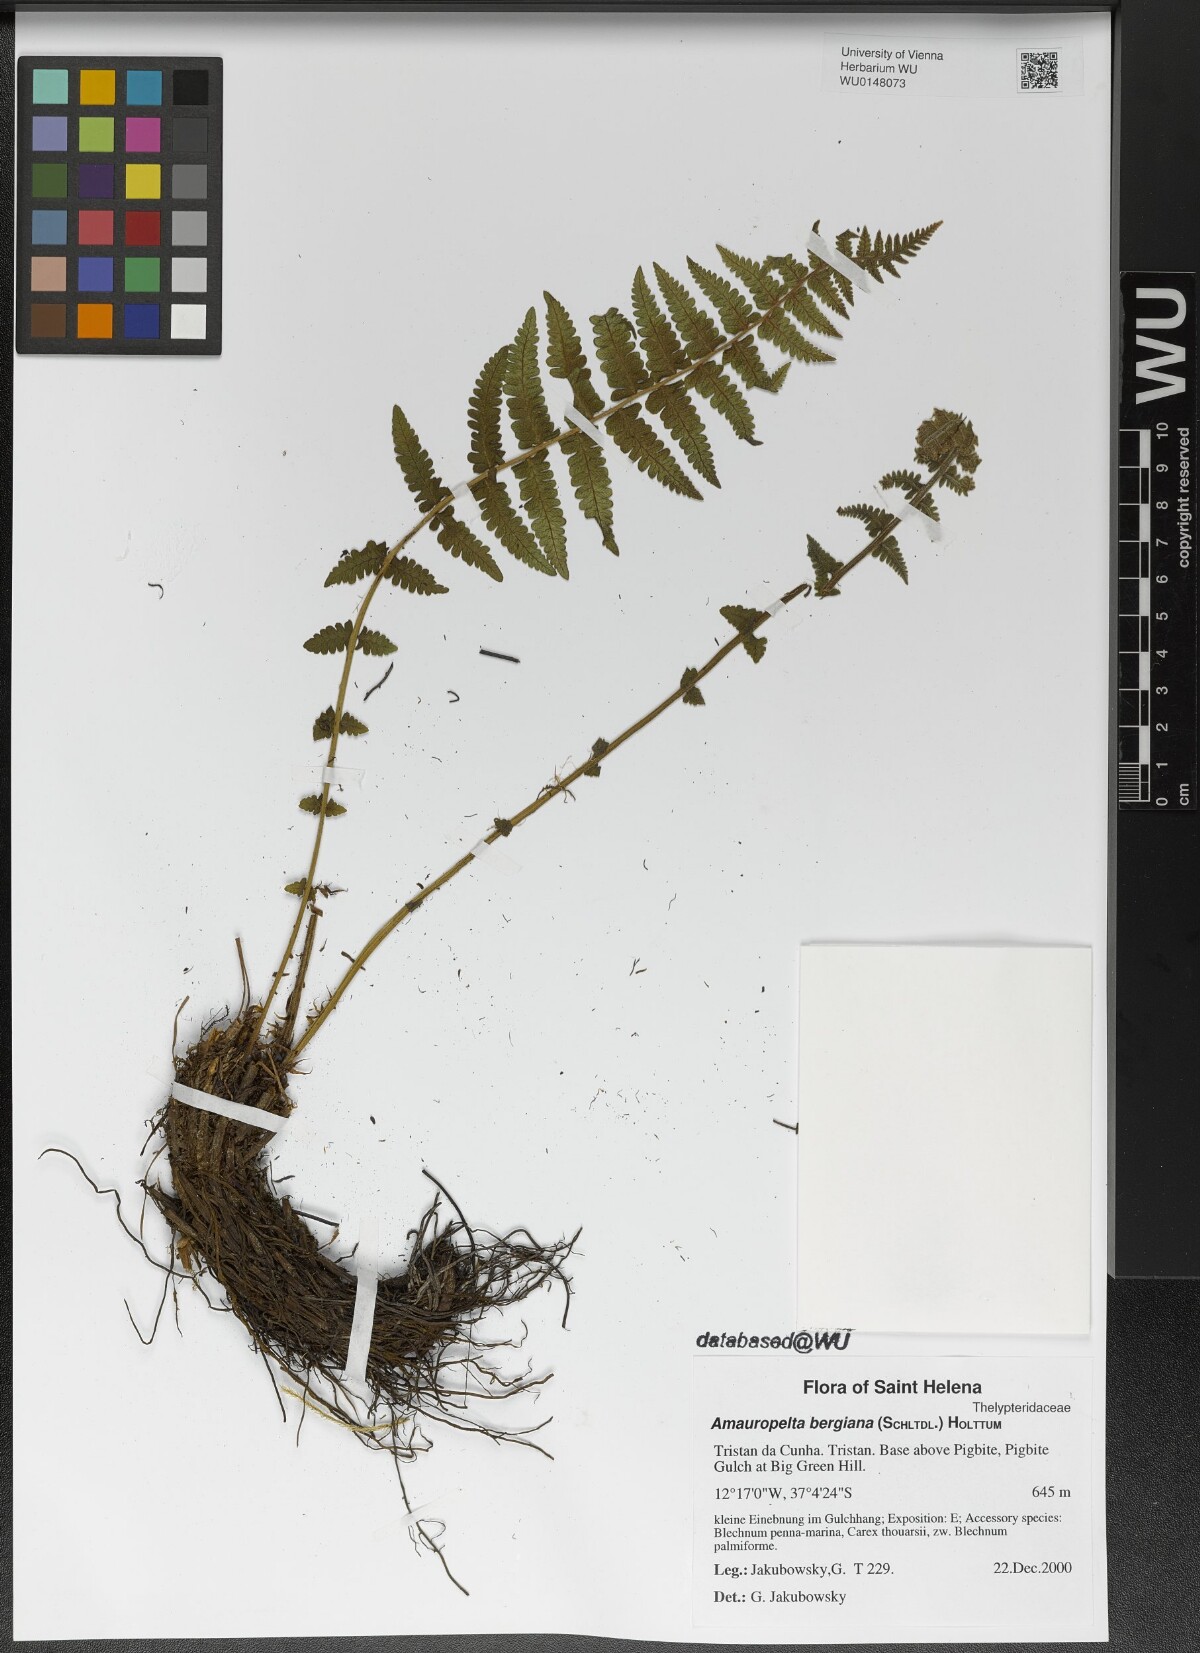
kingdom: Plantae
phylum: Tracheophyta
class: Polypodiopsida
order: Polypodiales
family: Thelypteridaceae
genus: Amauropelta
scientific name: Amauropelta bergiana
